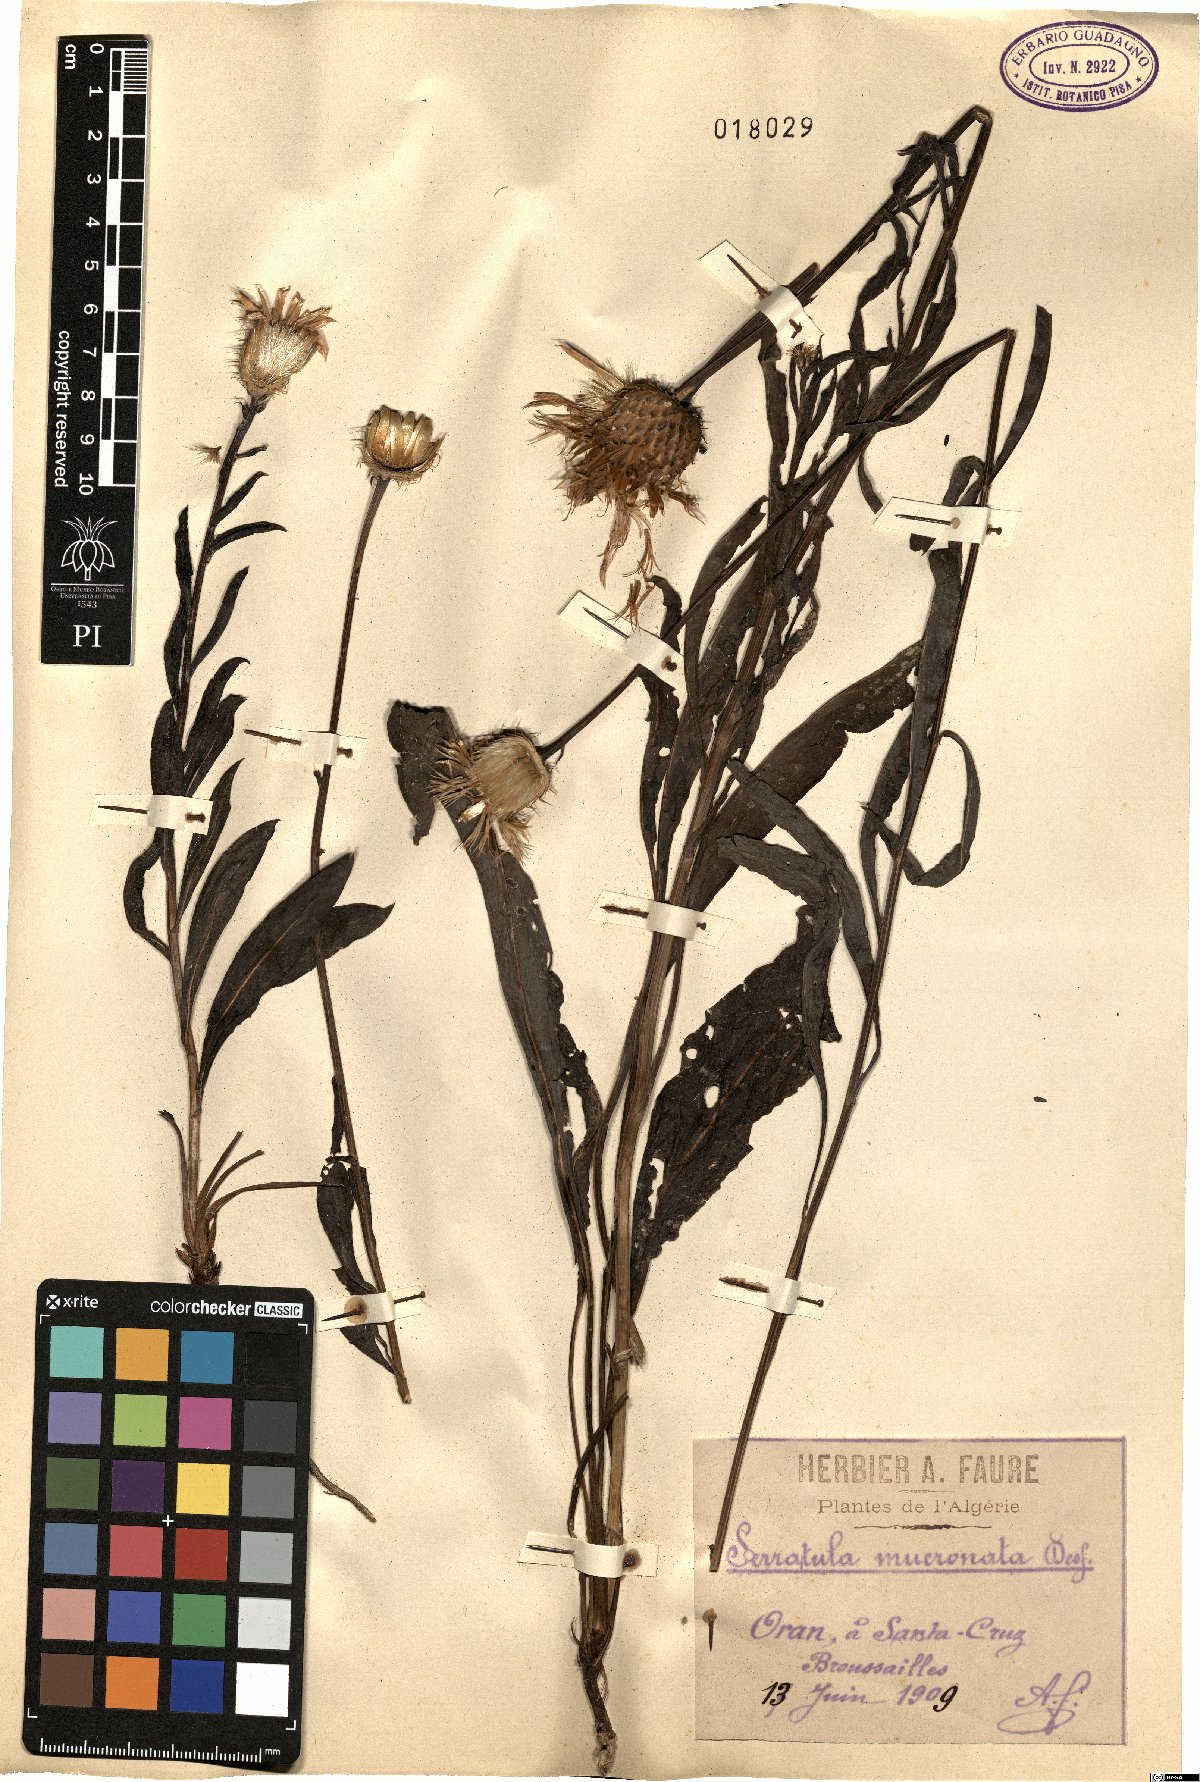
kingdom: Plantae
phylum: Tracheophyta
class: Magnoliopsida
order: Asterales
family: Asteraceae
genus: Klasea
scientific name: Klasea flavescens
